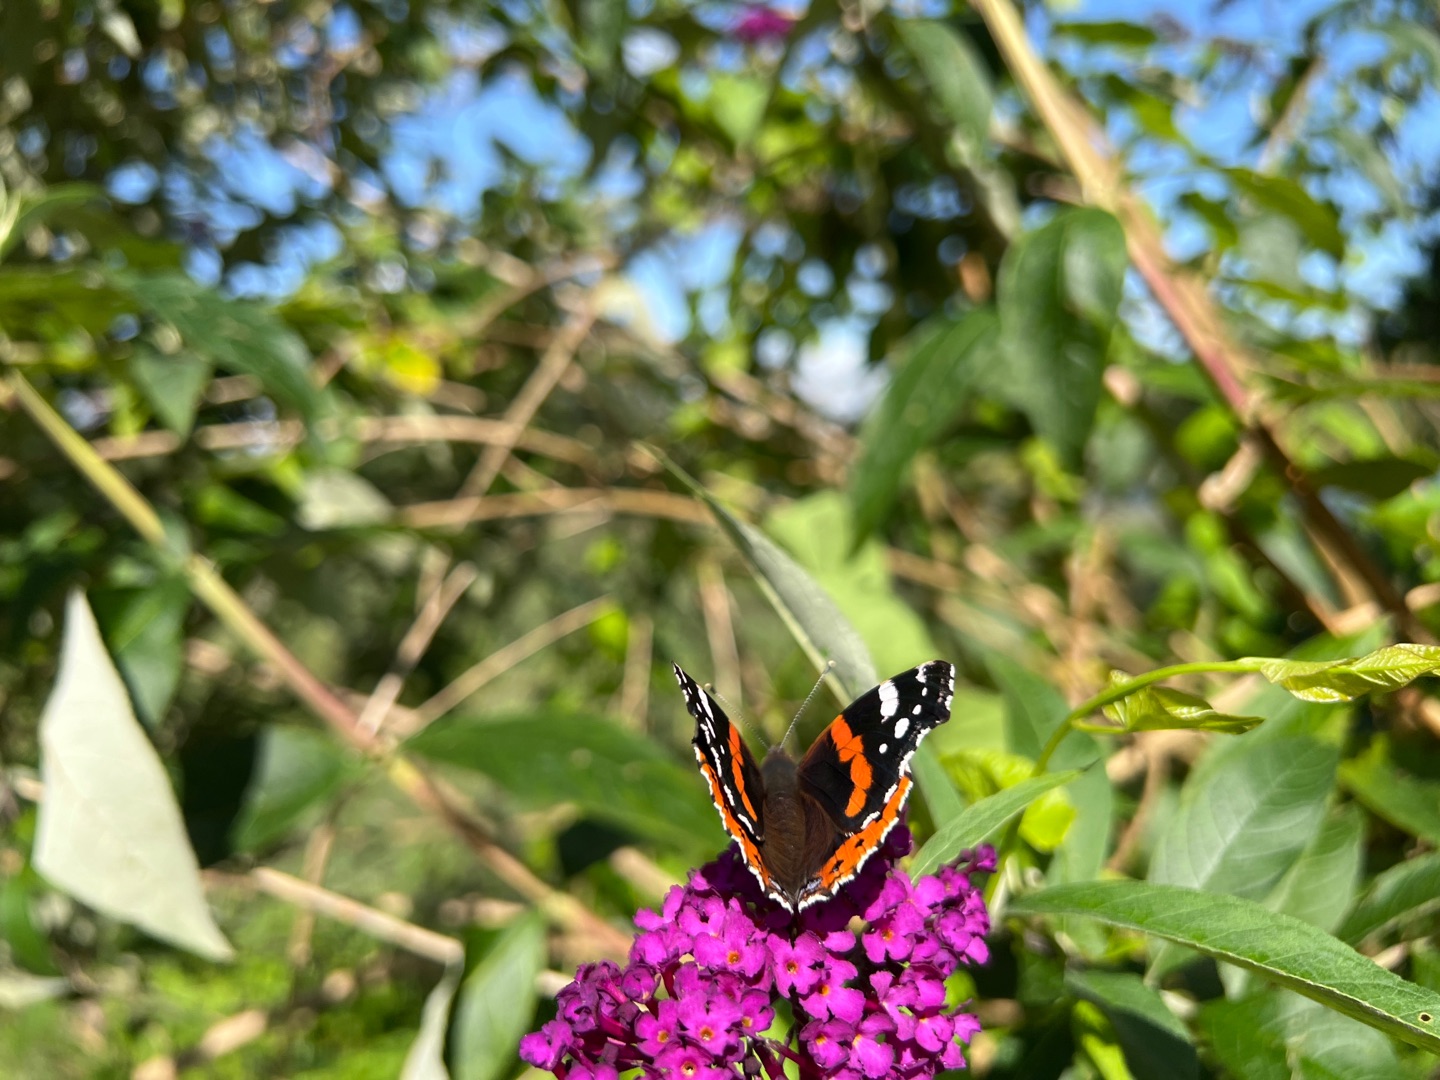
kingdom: Animalia
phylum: Arthropoda
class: Insecta
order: Lepidoptera
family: Nymphalidae
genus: Vanessa
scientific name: Vanessa atalanta
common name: Admiral
